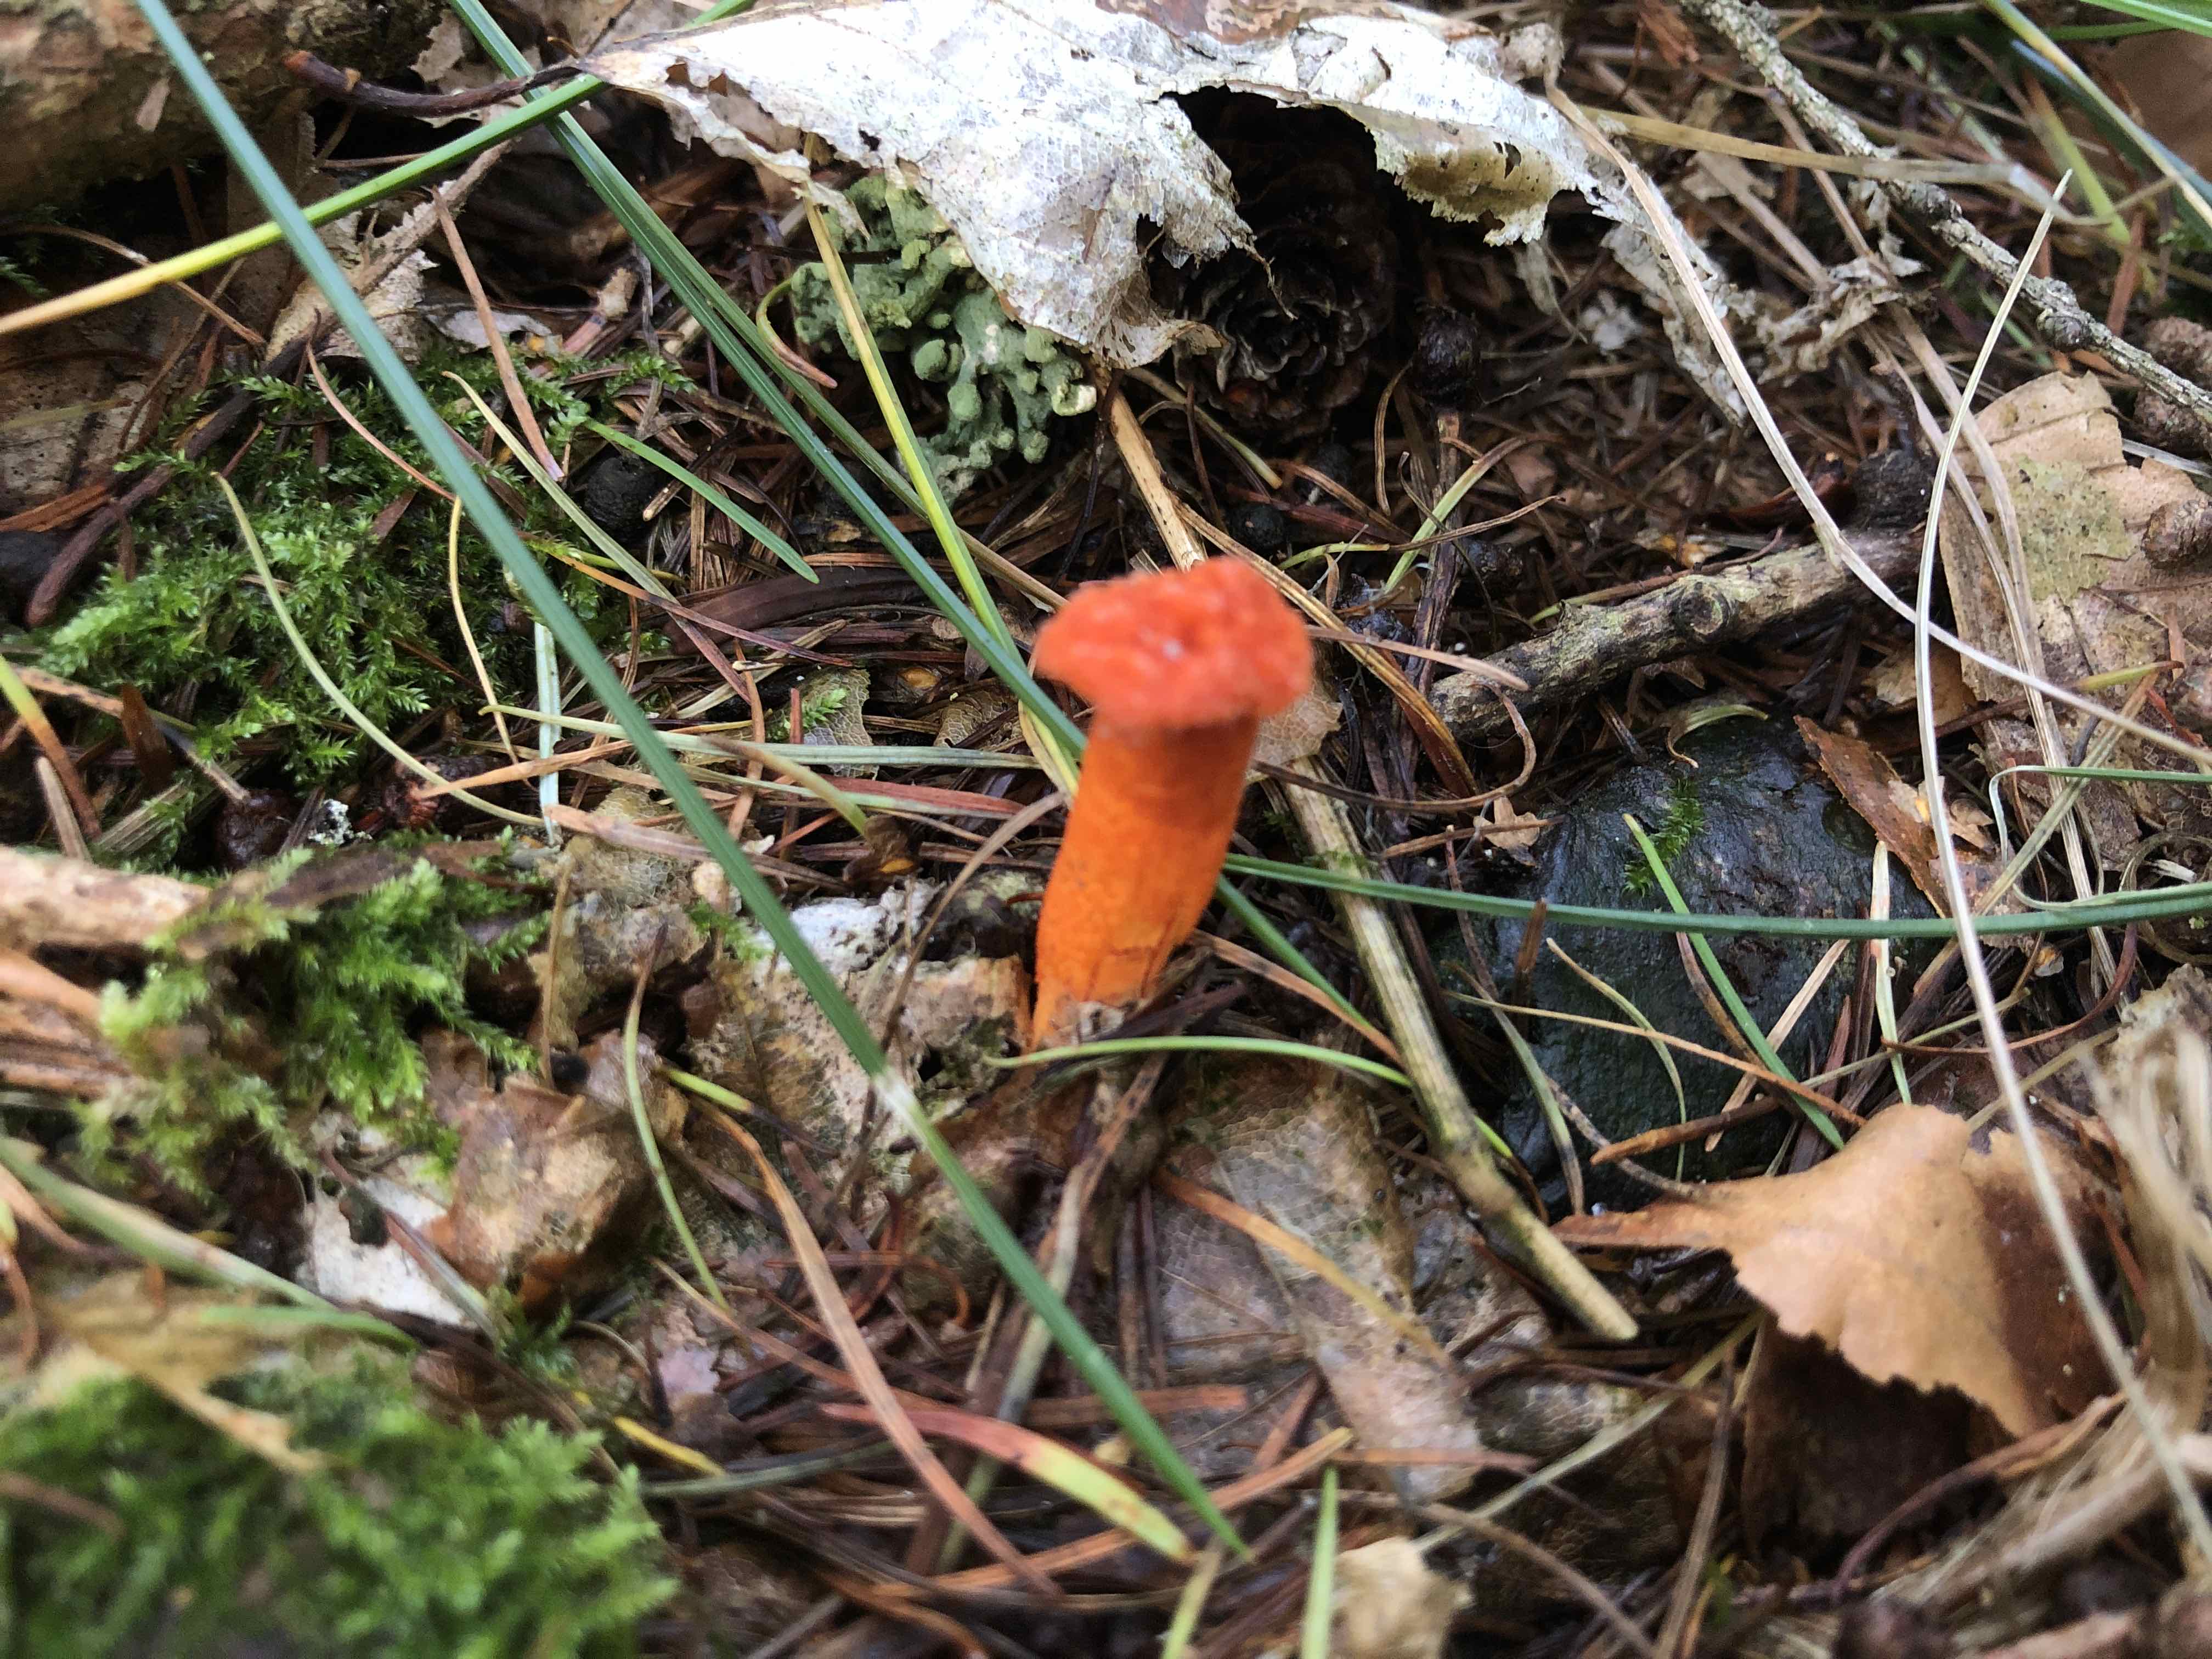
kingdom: Fungi
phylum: Ascomycota
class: Sordariomycetes
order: Hypocreales
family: Cordycipitaceae
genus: Cordyceps
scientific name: Cordyceps militaris
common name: puppe-snyltekølle
